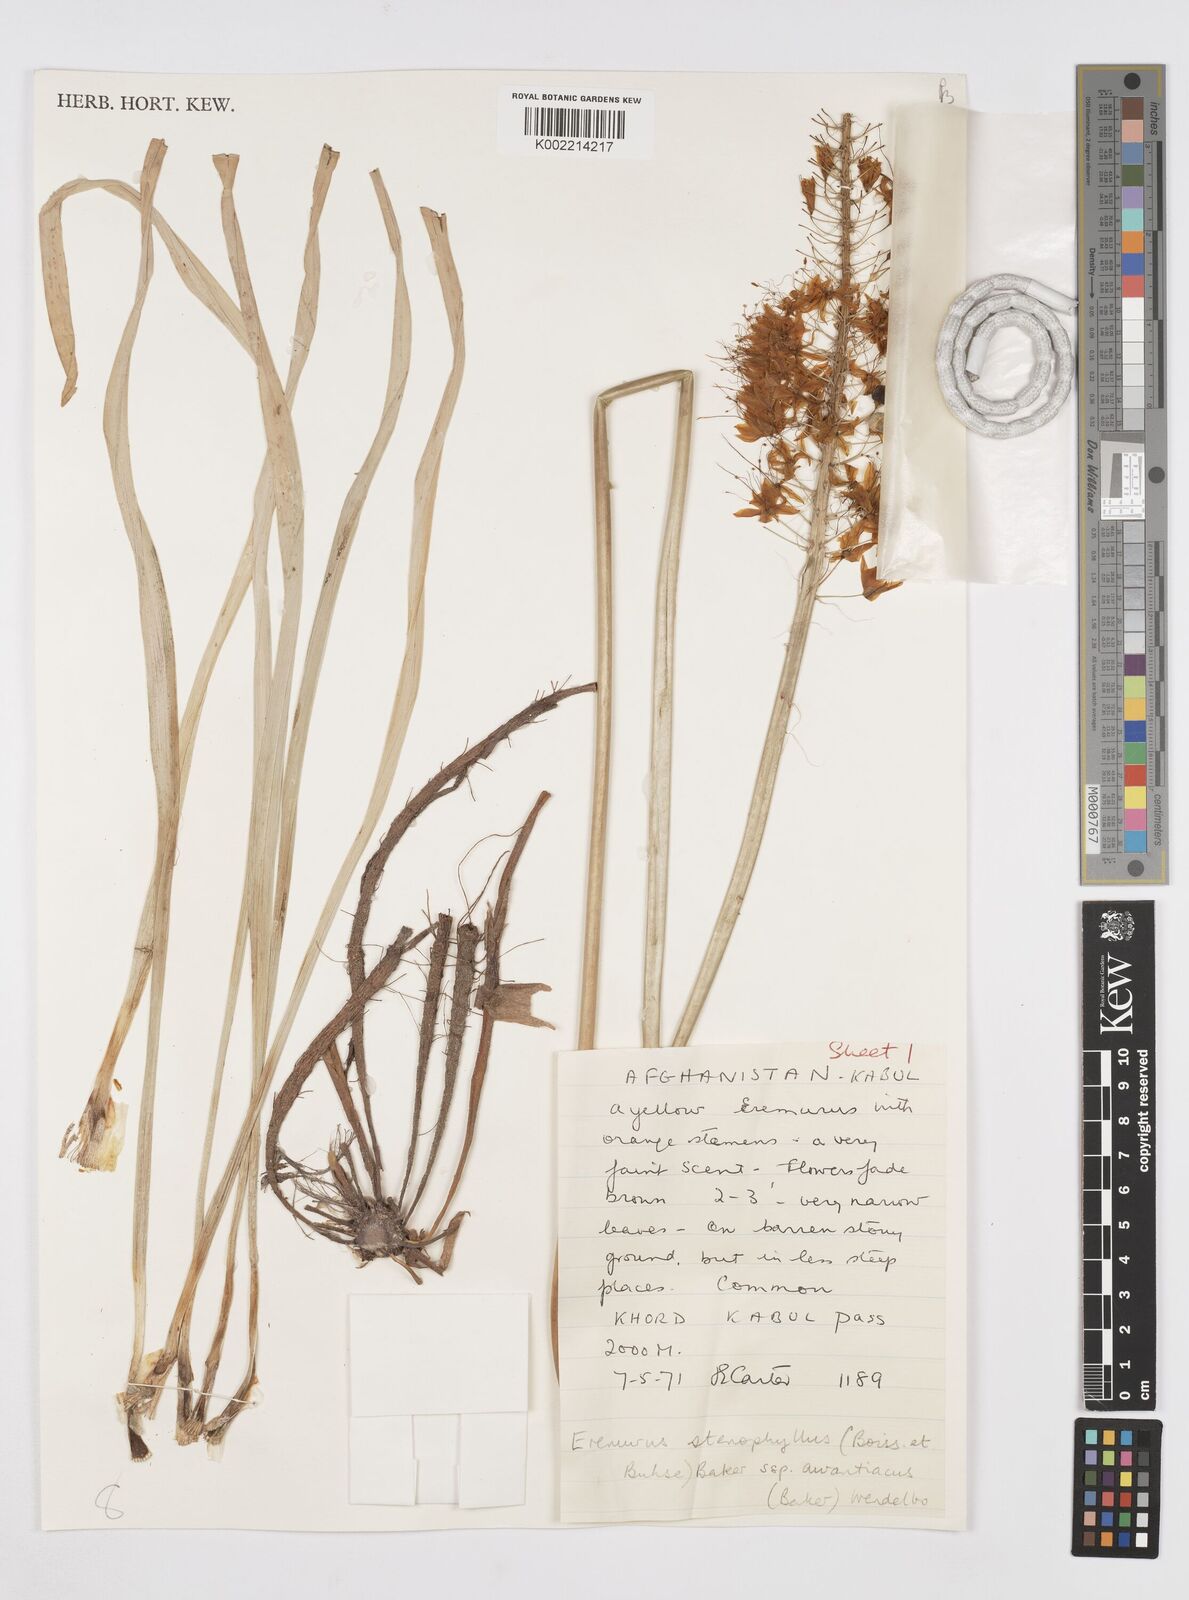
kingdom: Plantae
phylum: Tracheophyta
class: Liliopsida
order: Asparagales
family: Asphodelaceae
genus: Eremurus
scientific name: Eremurus stenophyllus
